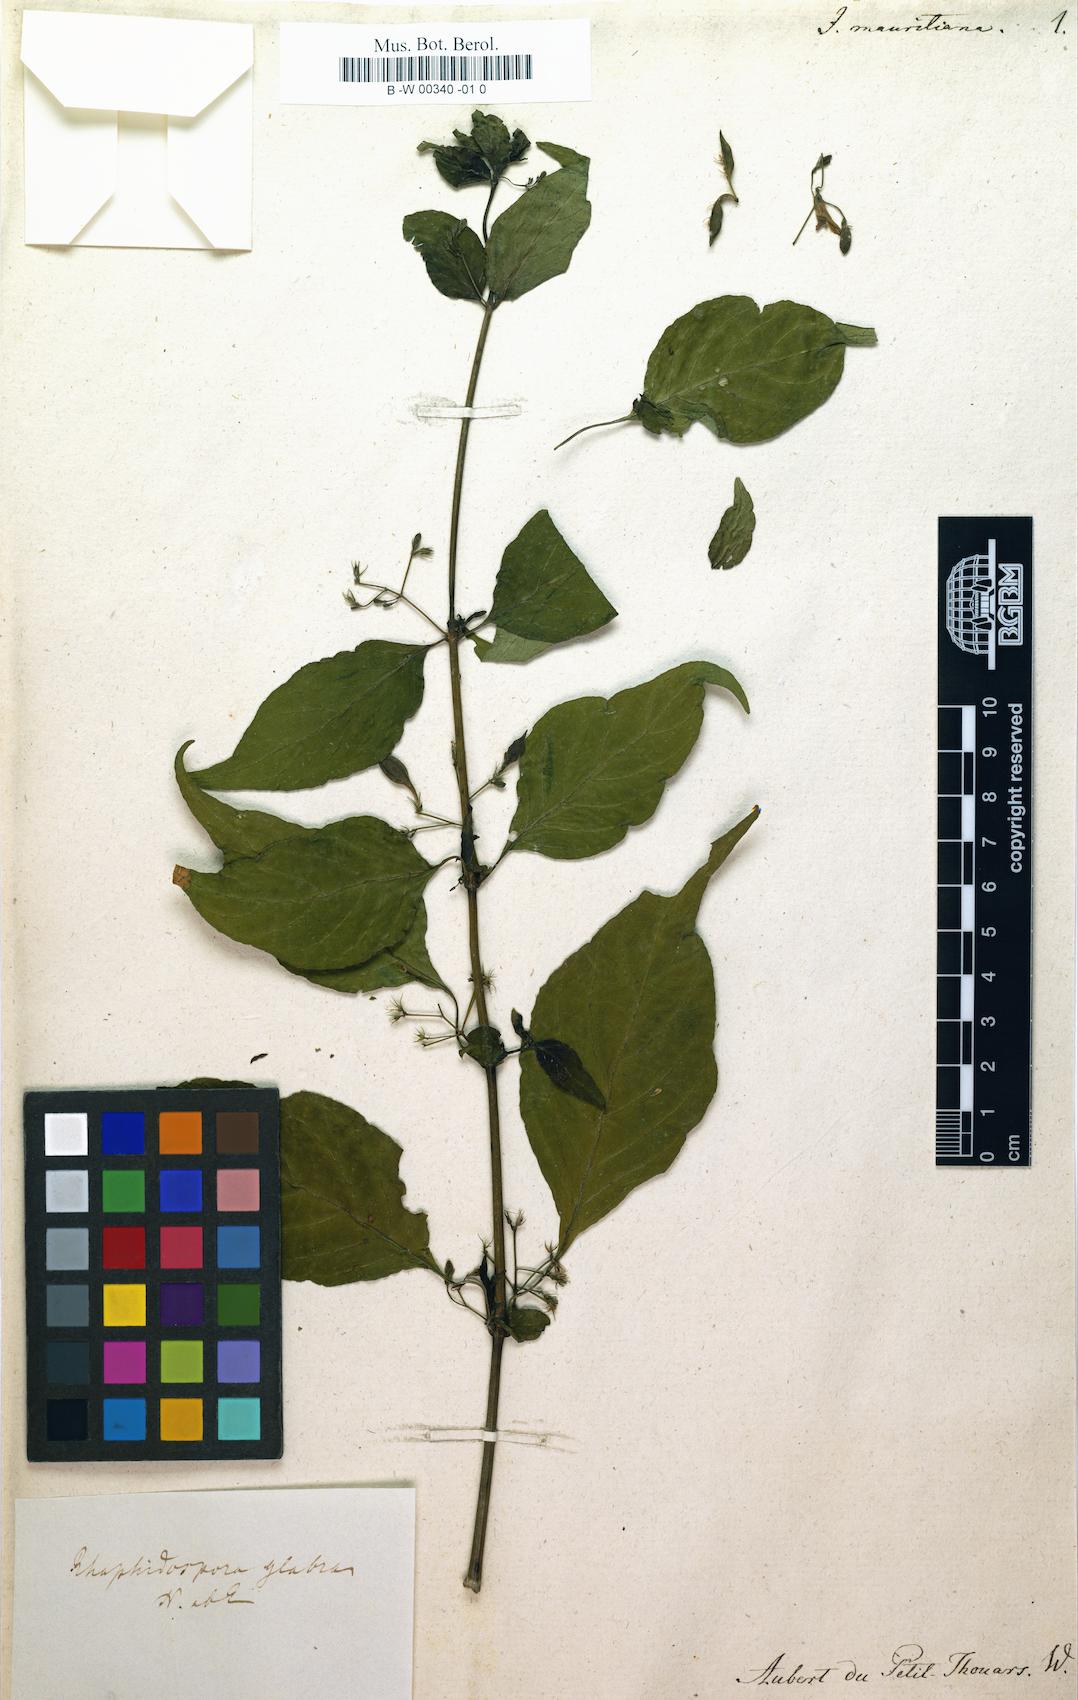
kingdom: Plantae
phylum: Tracheophyta
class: Magnoliopsida
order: Lamiales
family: Acanthaceae
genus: Justicia
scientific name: Justicia scandens
